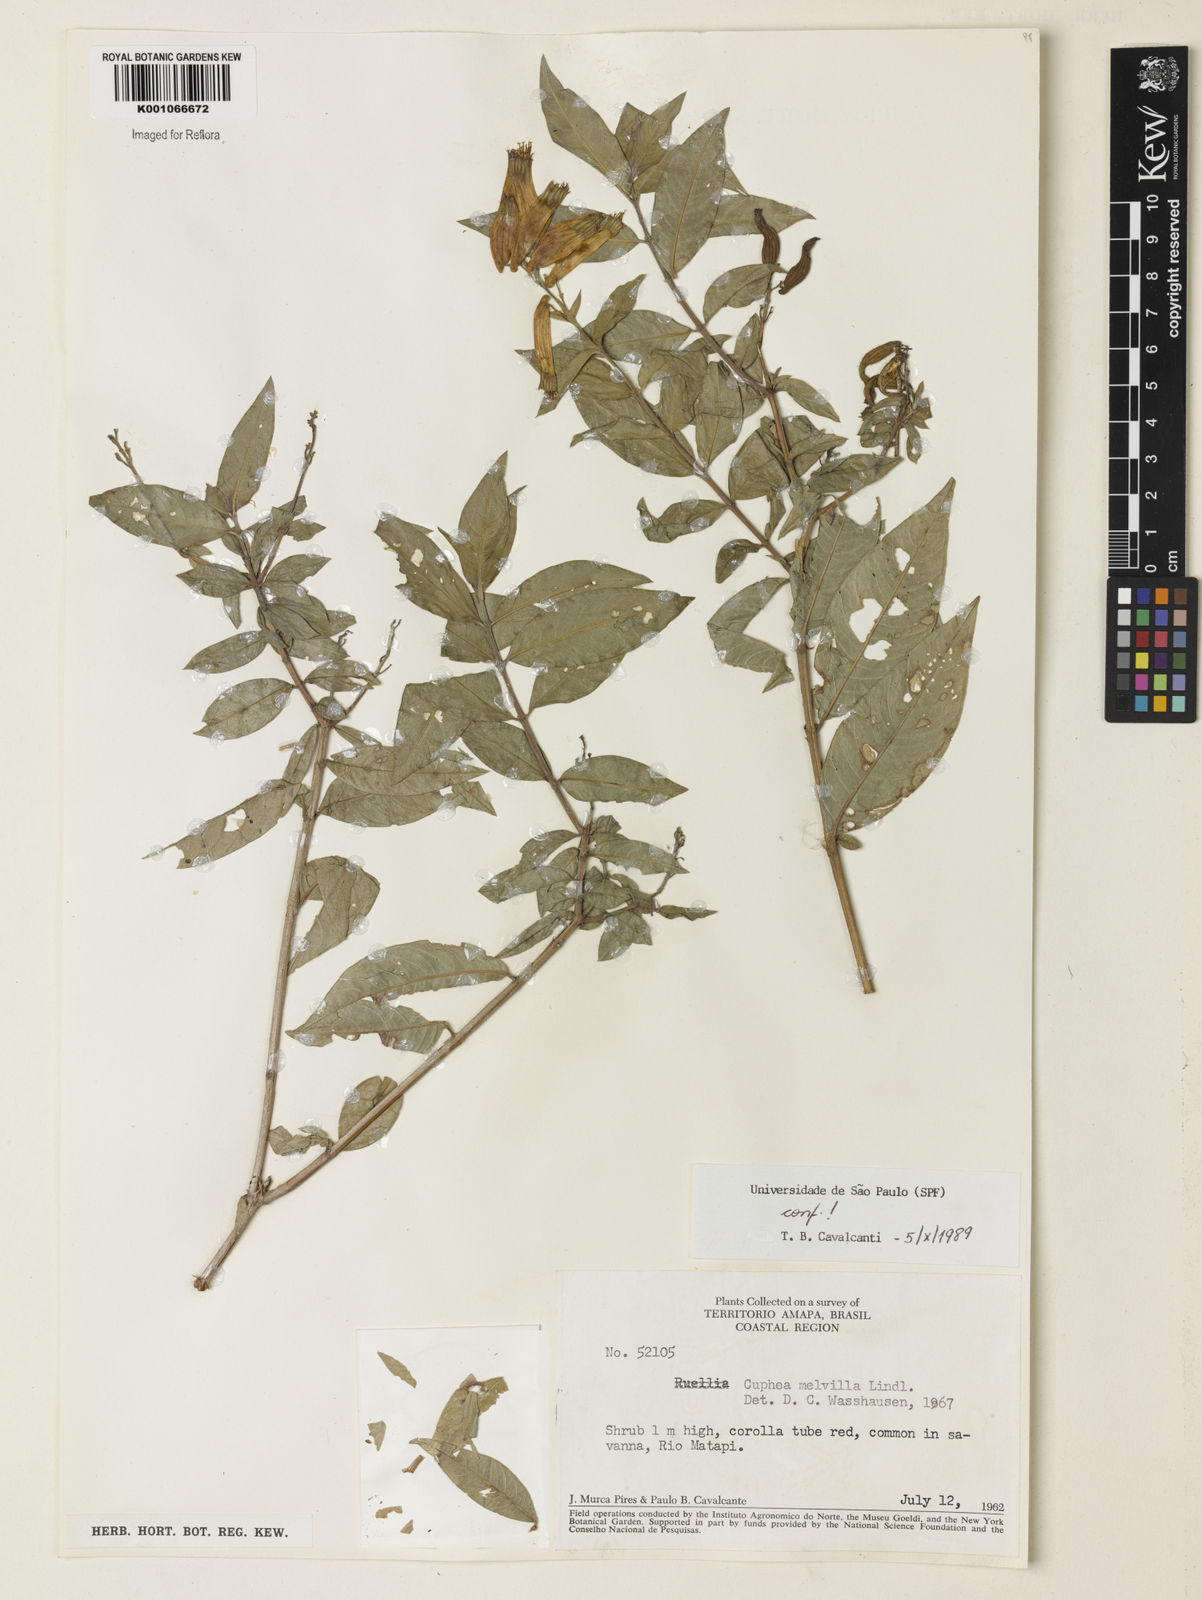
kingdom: Plantae
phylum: Tracheophyta
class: Magnoliopsida
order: Myrtales
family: Lythraceae
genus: Cuphea
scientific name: Cuphea melvilla
